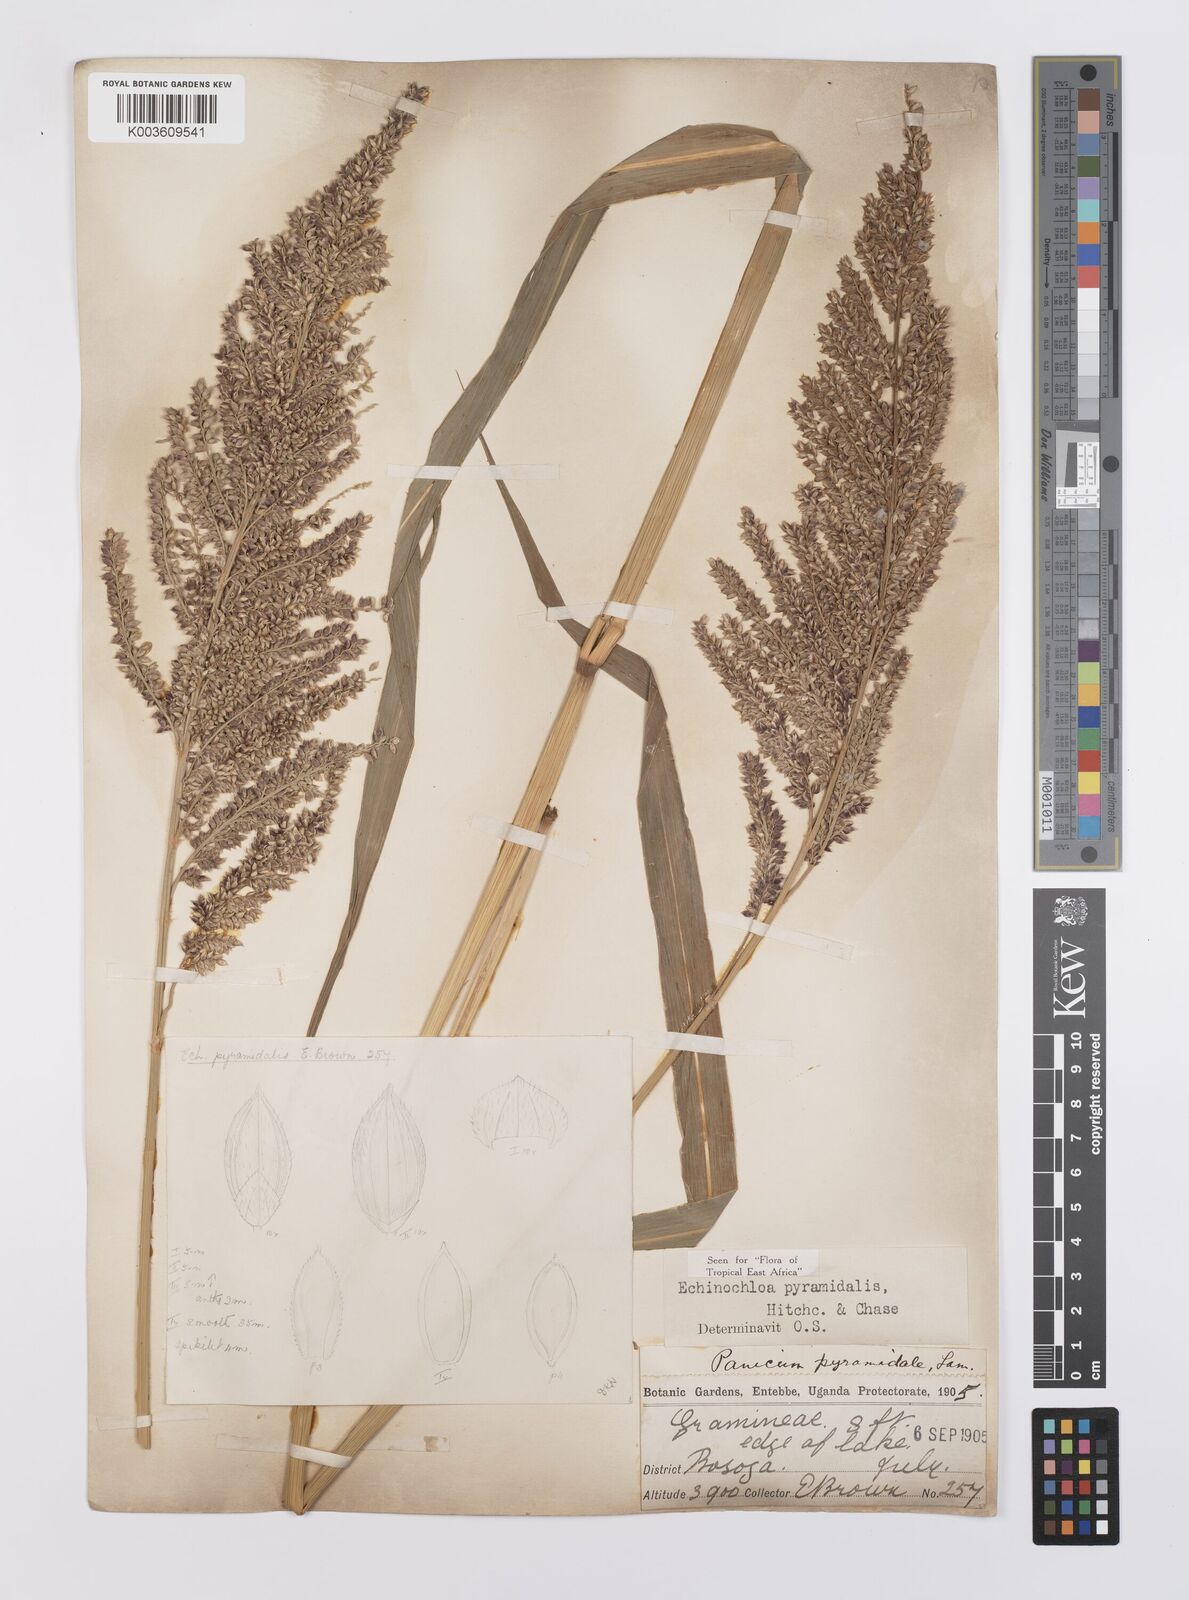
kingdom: Plantae
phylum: Tracheophyta
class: Liliopsida
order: Poales
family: Poaceae
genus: Echinochloa
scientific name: Echinochloa pyramidalis
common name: Antelope grass
